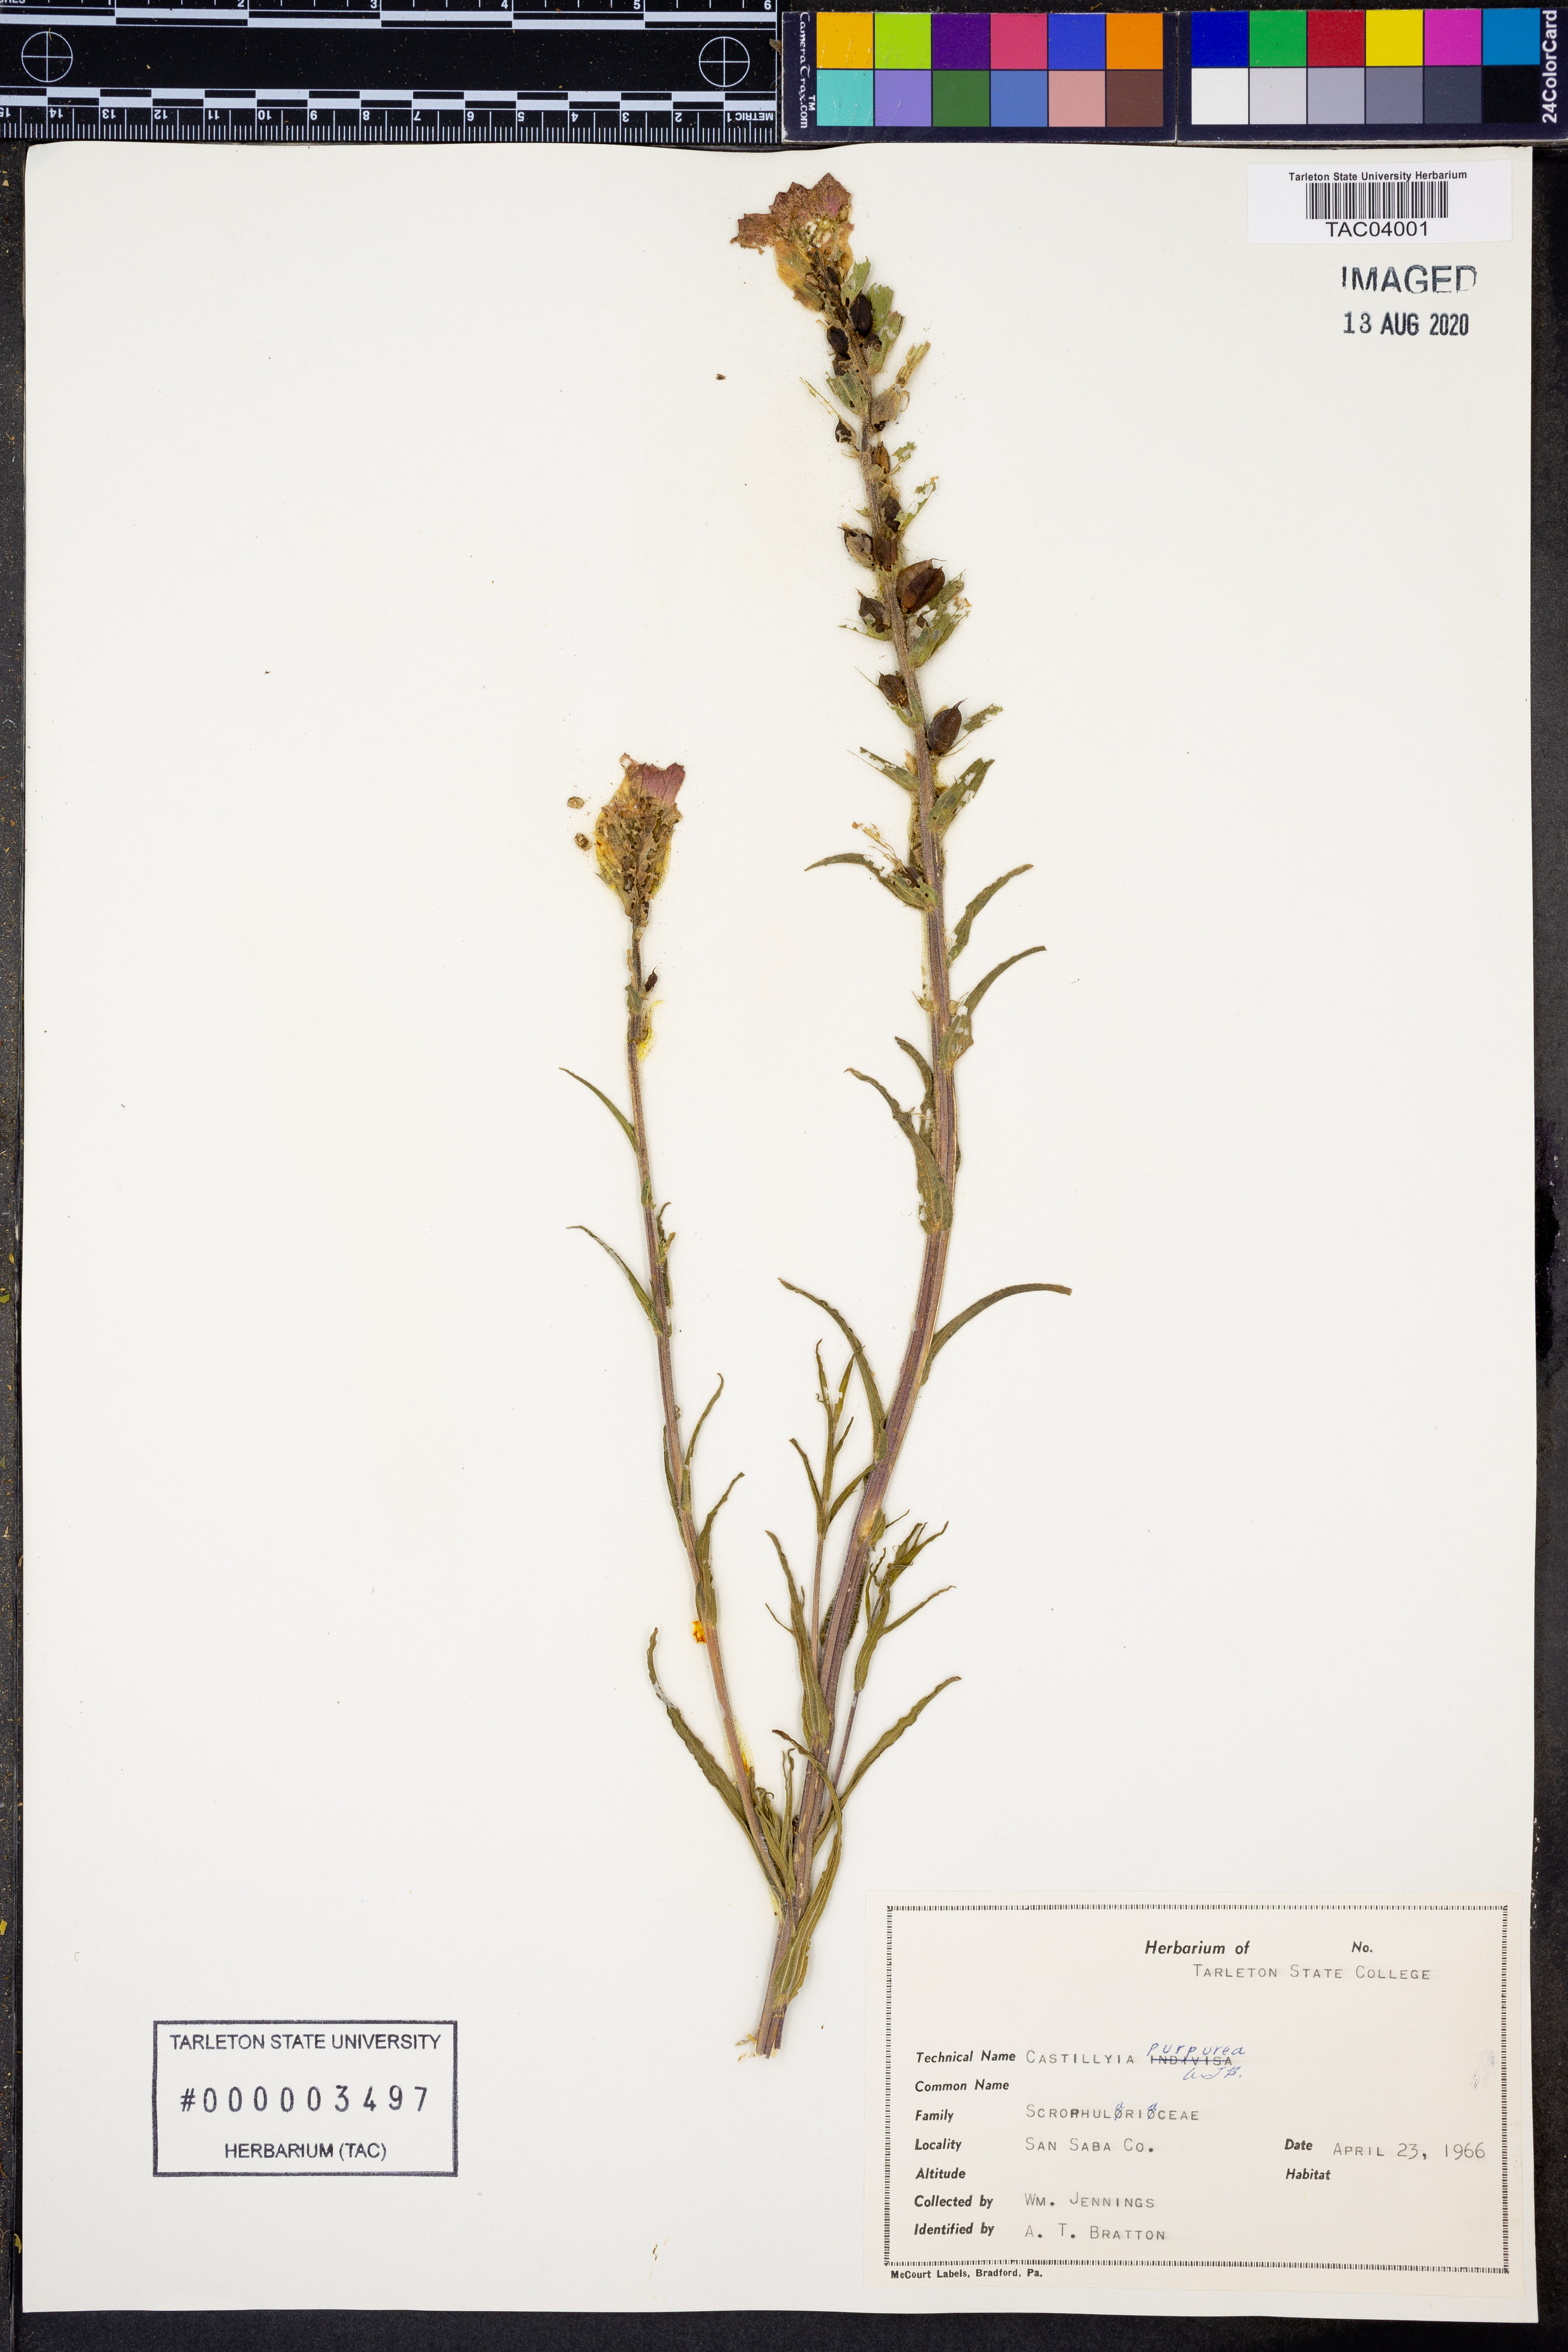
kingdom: Plantae
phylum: Tracheophyta
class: Magnoliopsida
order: Lamiales
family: Orobanchaceae
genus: Castilleja
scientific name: Castilleja purpurea
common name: Plains paintbrush
